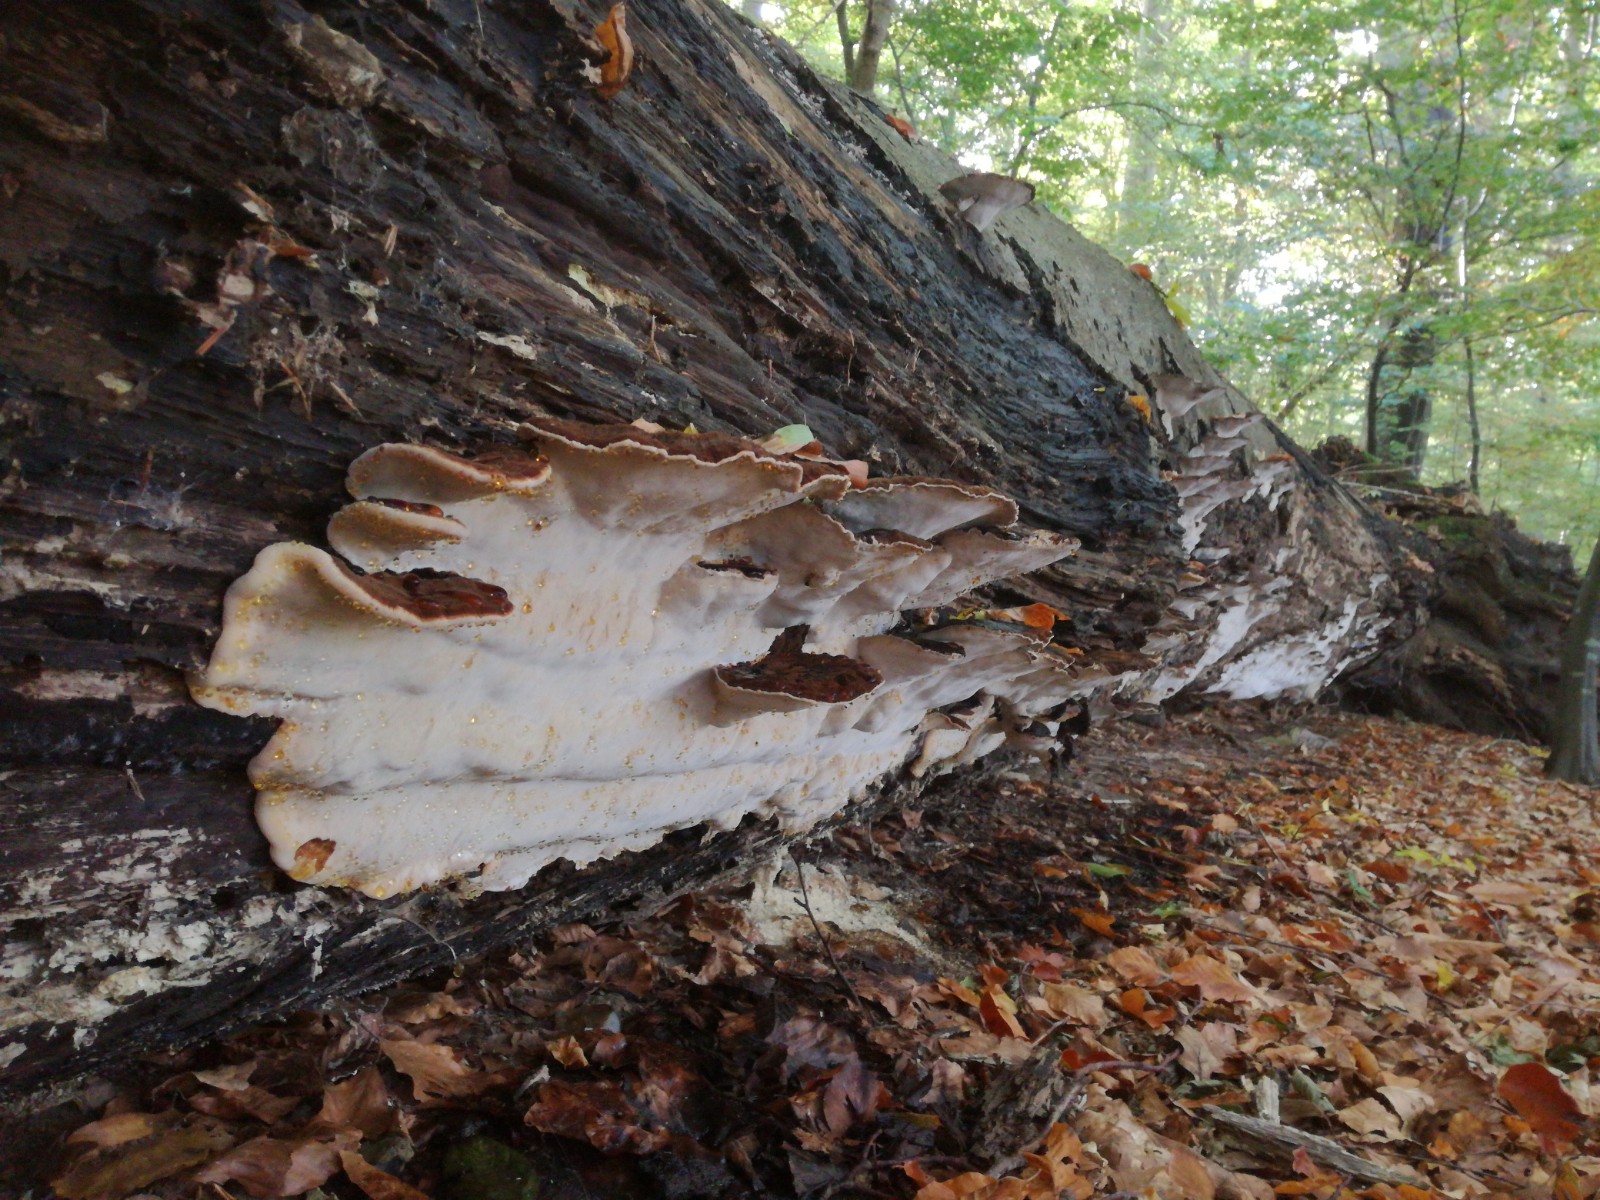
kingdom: Fungi
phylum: Basidiomycota
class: Agaricomycetes
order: Polyporales
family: Ischnodermataceae
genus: Ischnoderma
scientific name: Ischnoderma resinosum
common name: løv-tjæreporesvamp
